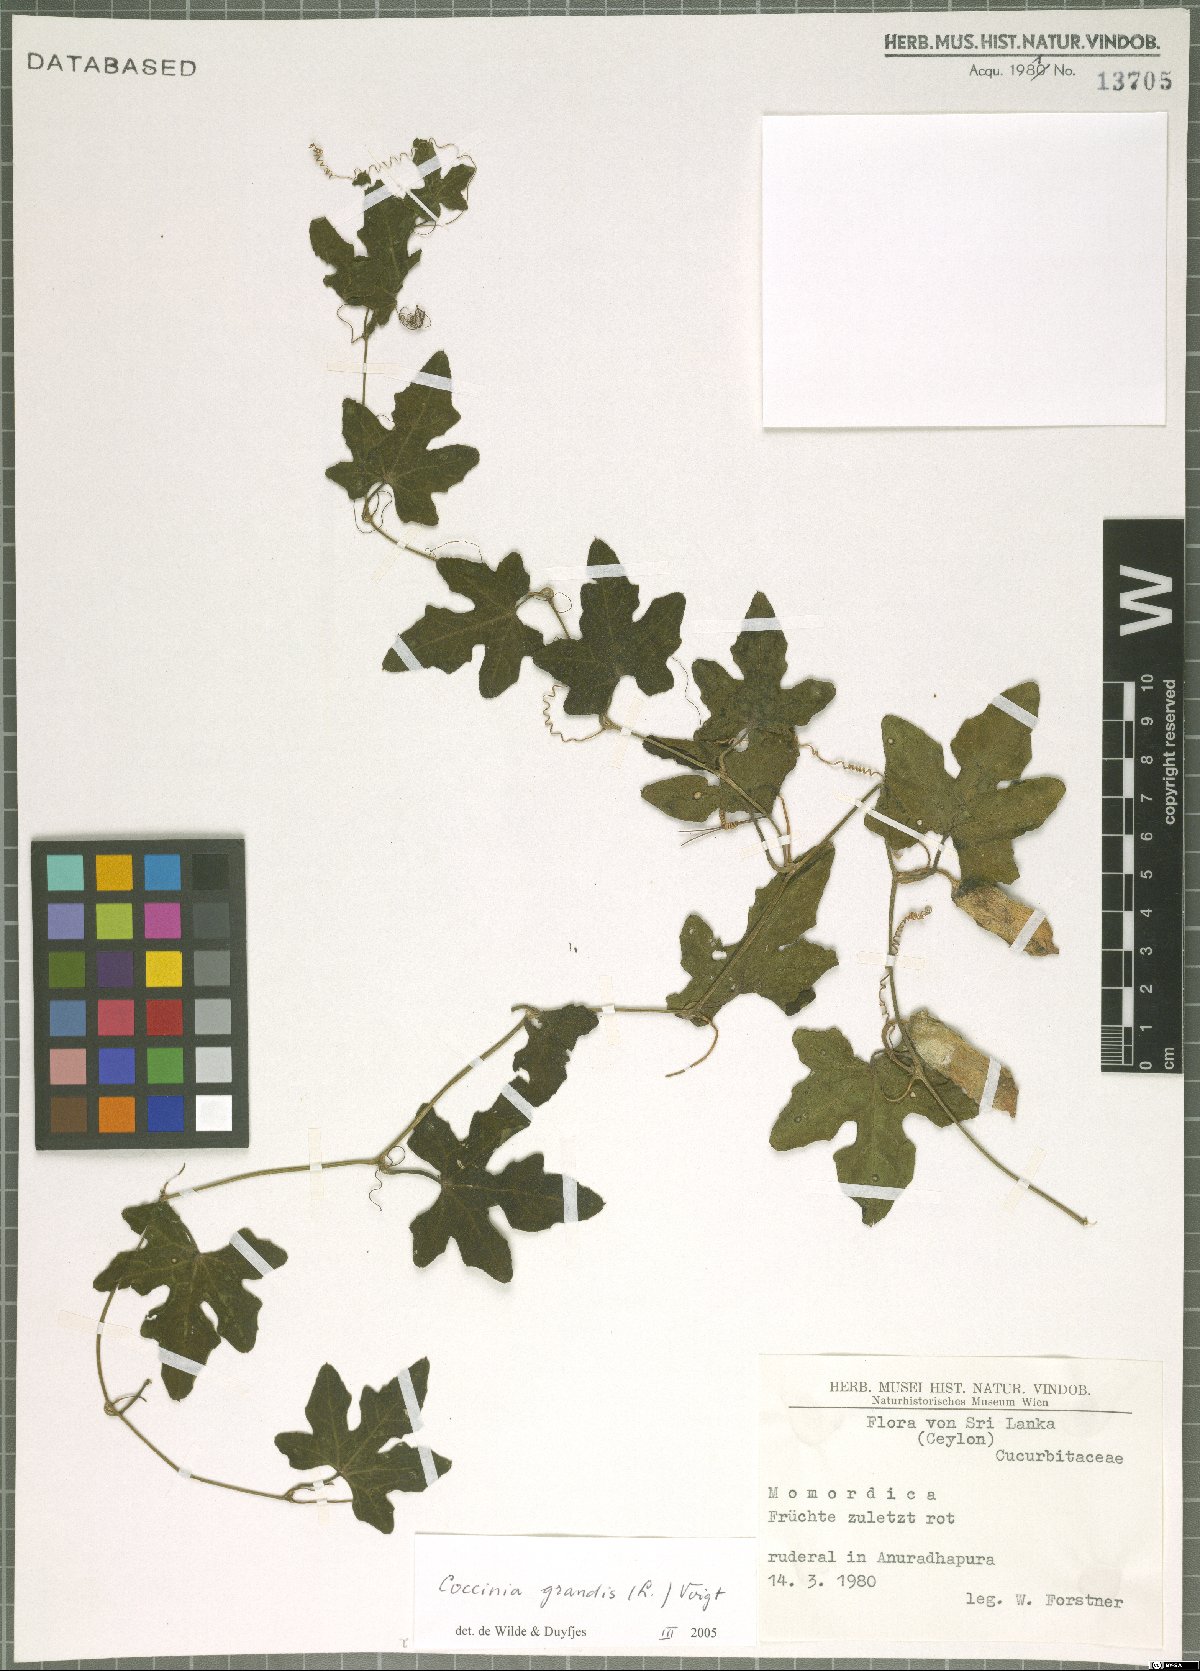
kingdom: Plantae
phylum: Tracheophyta
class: Magnoliopsida
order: Cucurbitales
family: Cucurbitaceae
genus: Coccinia
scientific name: Coccinia grandis
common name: Ivy gourd
